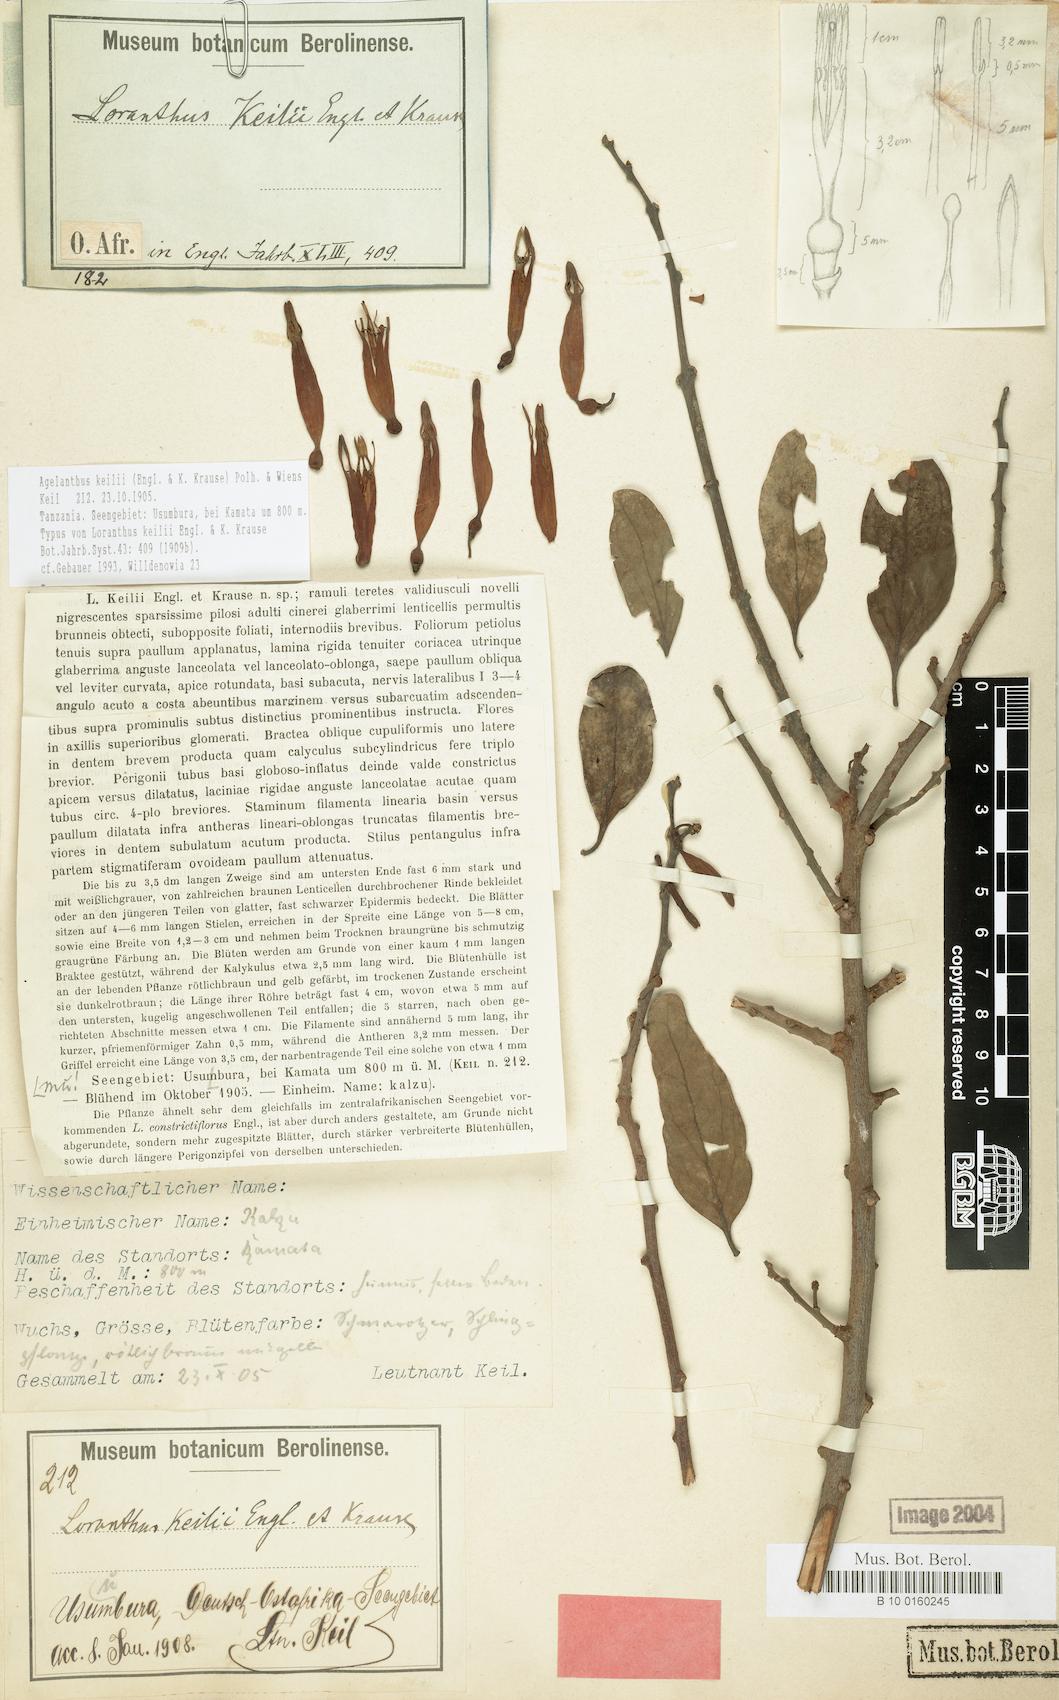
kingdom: Plantae
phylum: Tracheophyta
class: Magnoliopsida
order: Santalales
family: Loranthaceae
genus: Agelanthus
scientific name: Agelanthus keilii
